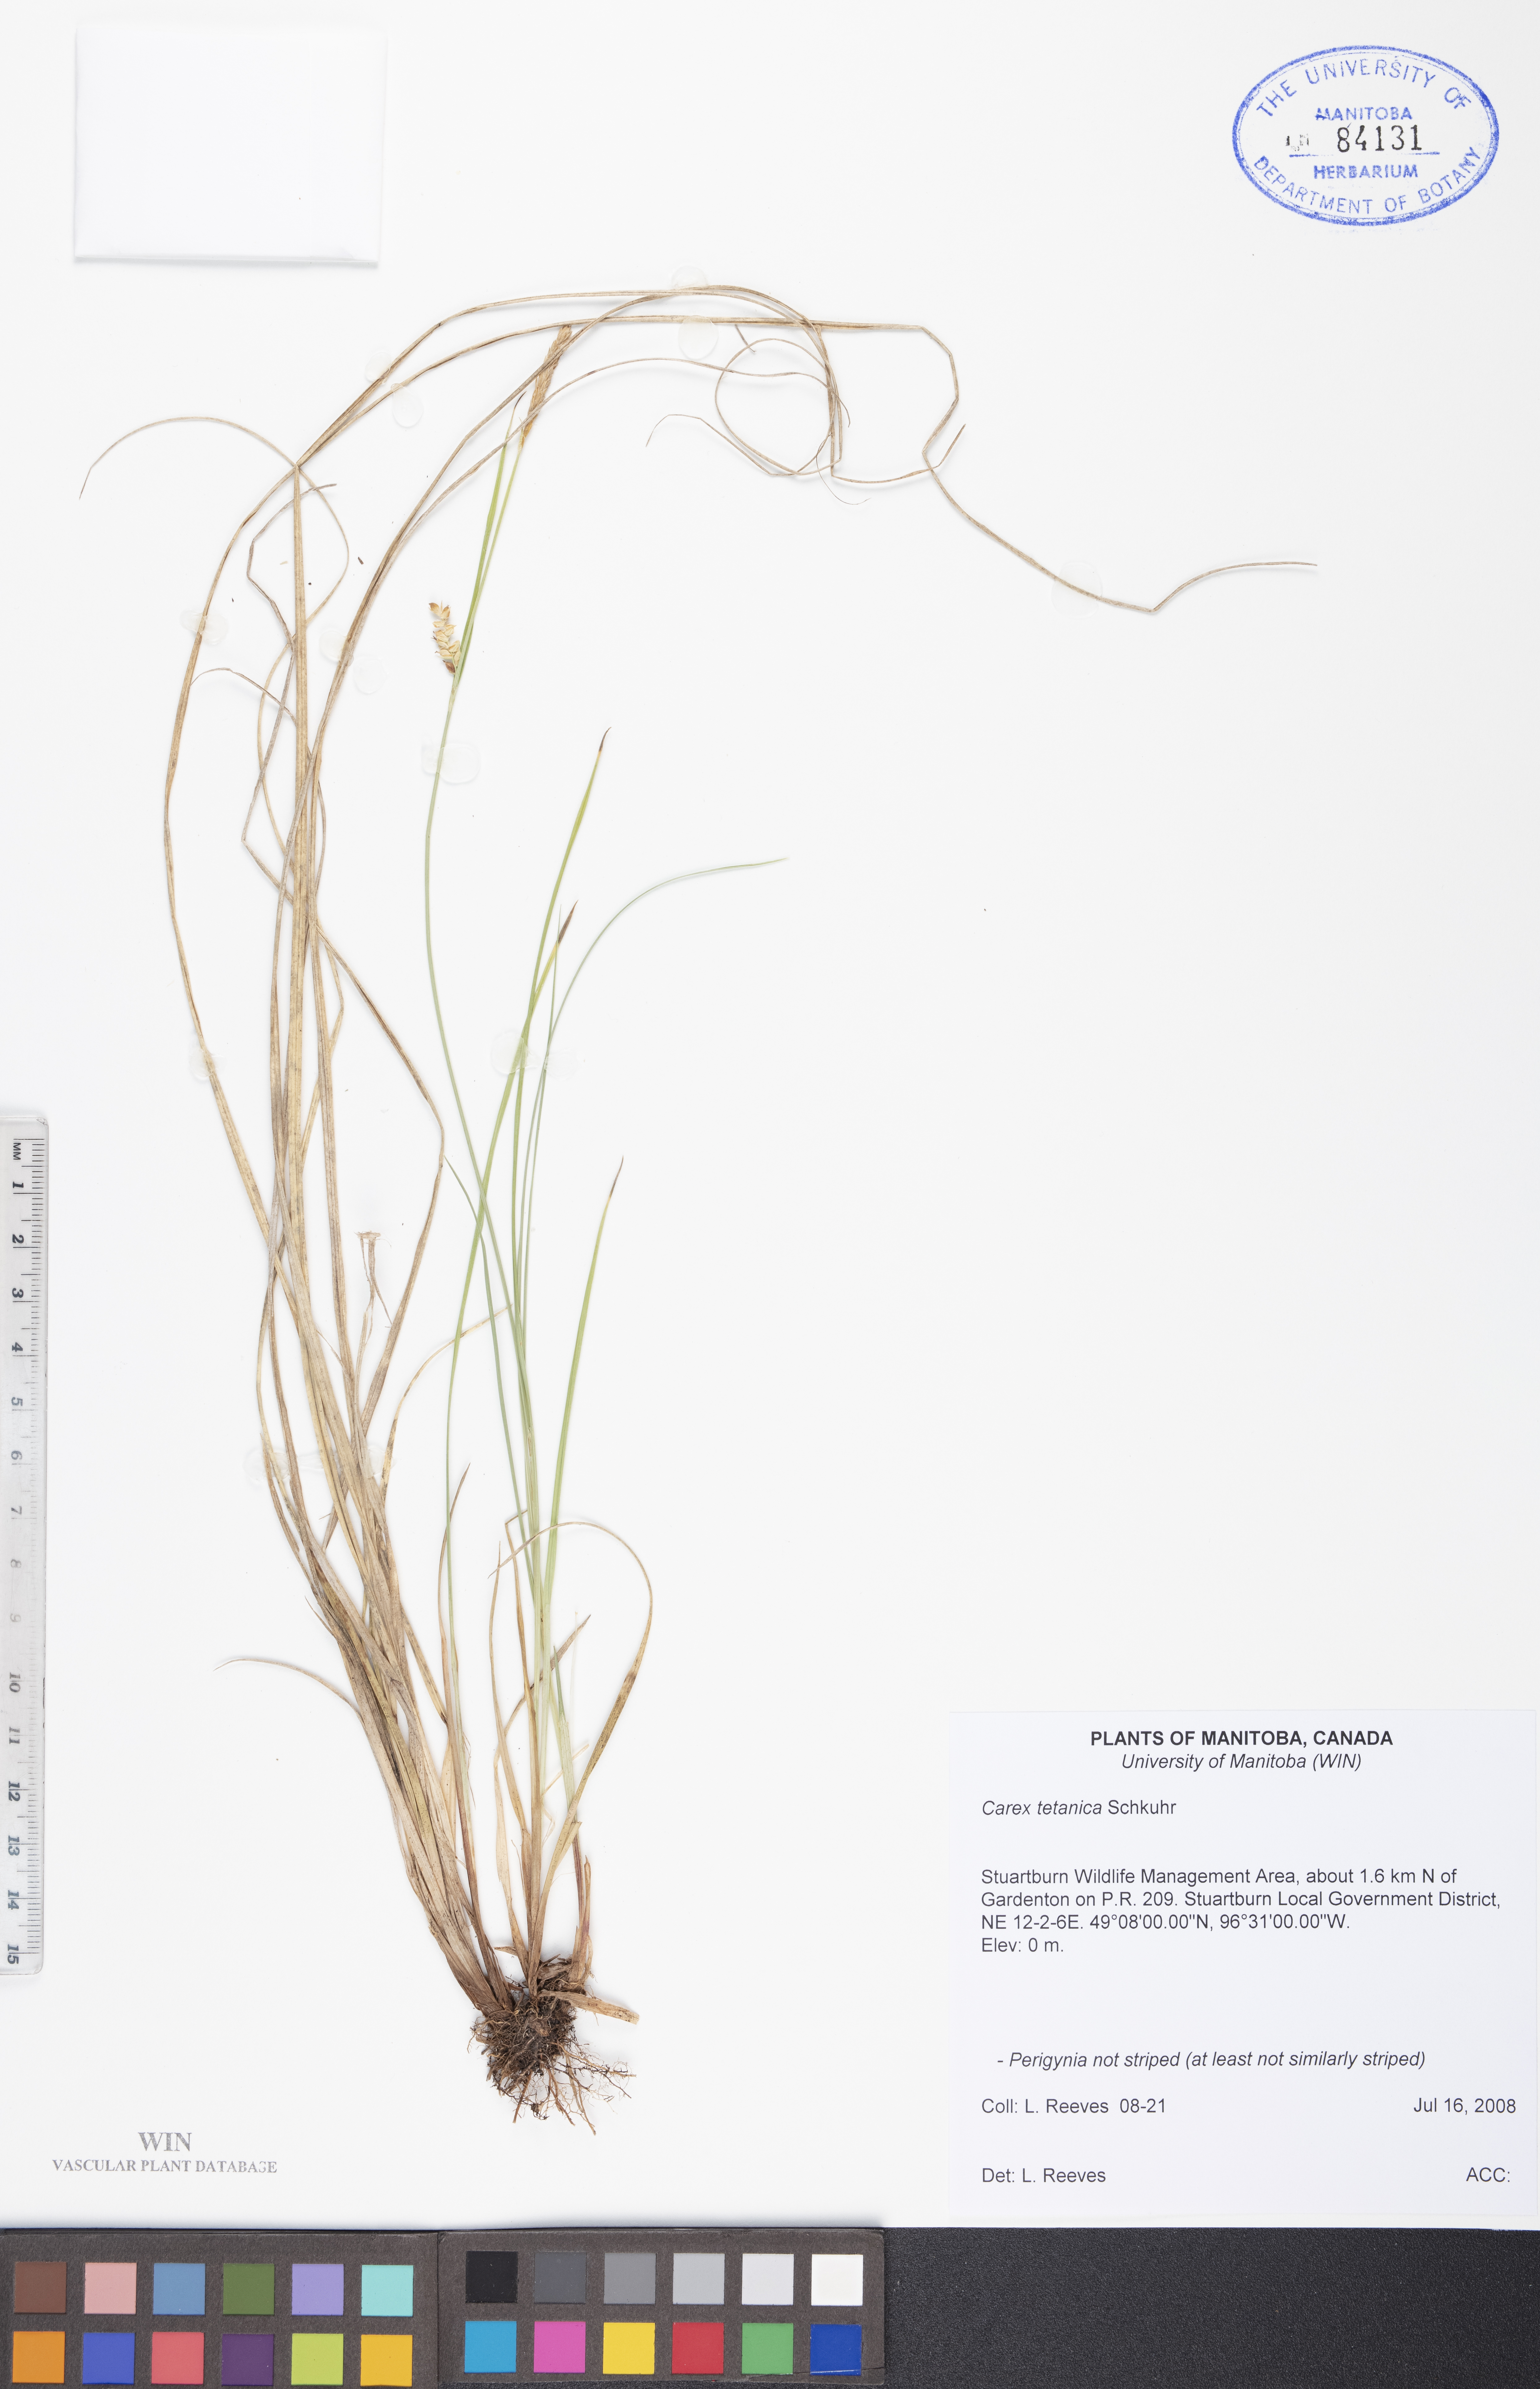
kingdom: Plantae
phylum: Tracheophyta
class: Liliopsida
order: Poales
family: Cyperaceae
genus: Carex
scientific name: Carex tetanica
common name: Rigid sedge
